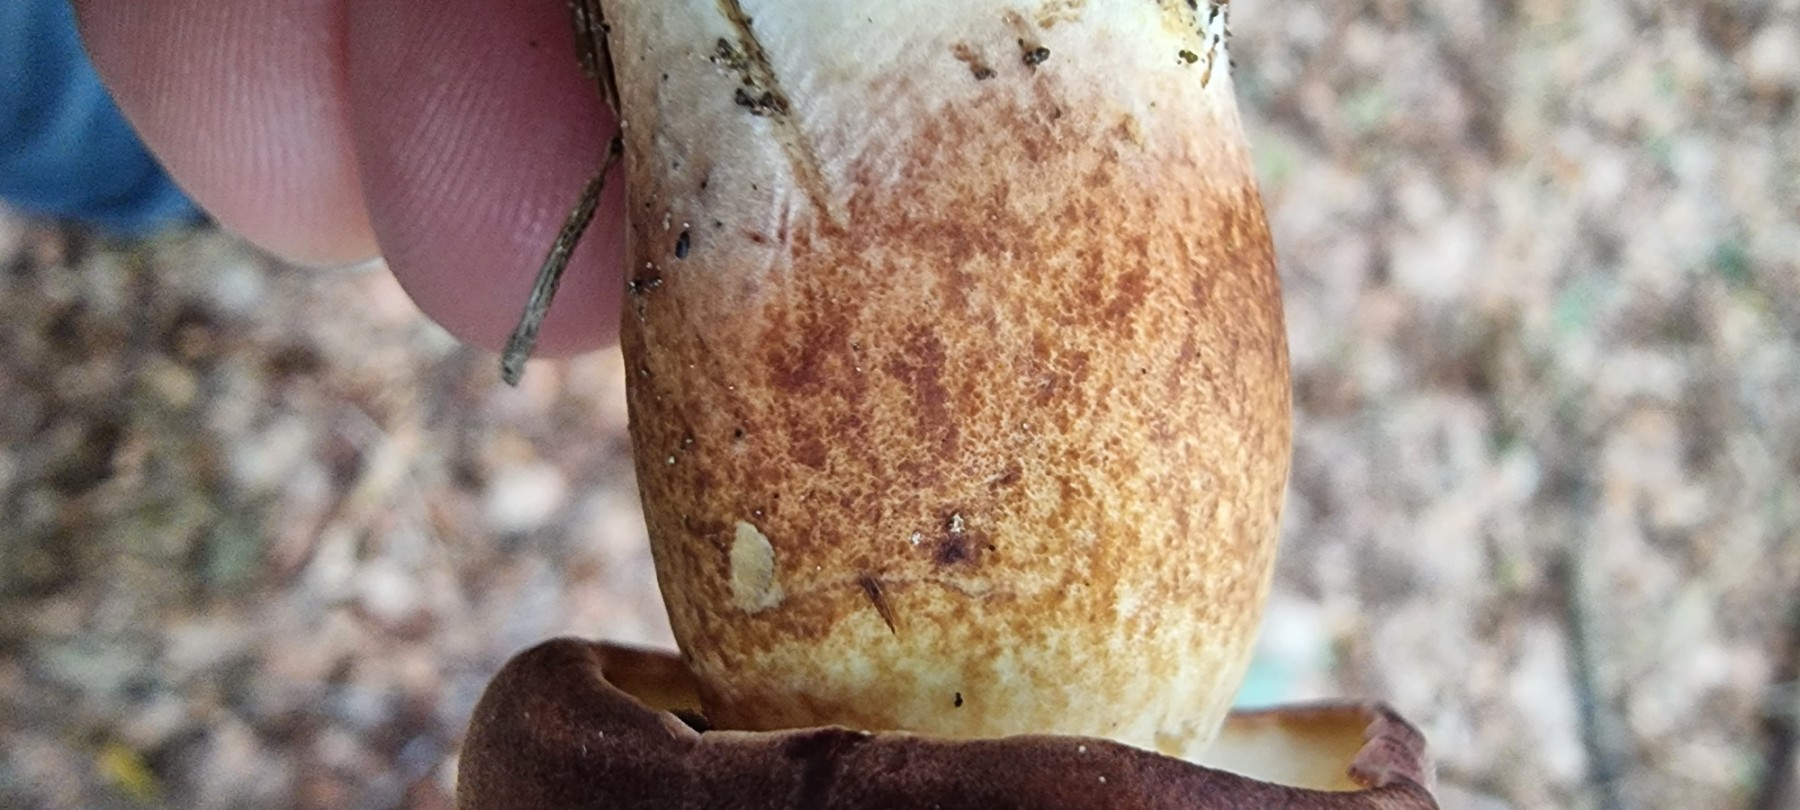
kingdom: Fungi
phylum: Basidiomycota
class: Agaricomycetes
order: Boletales
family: Boletaceae
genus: Imleria
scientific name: Imleria badia
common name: brunstokket rørhat
